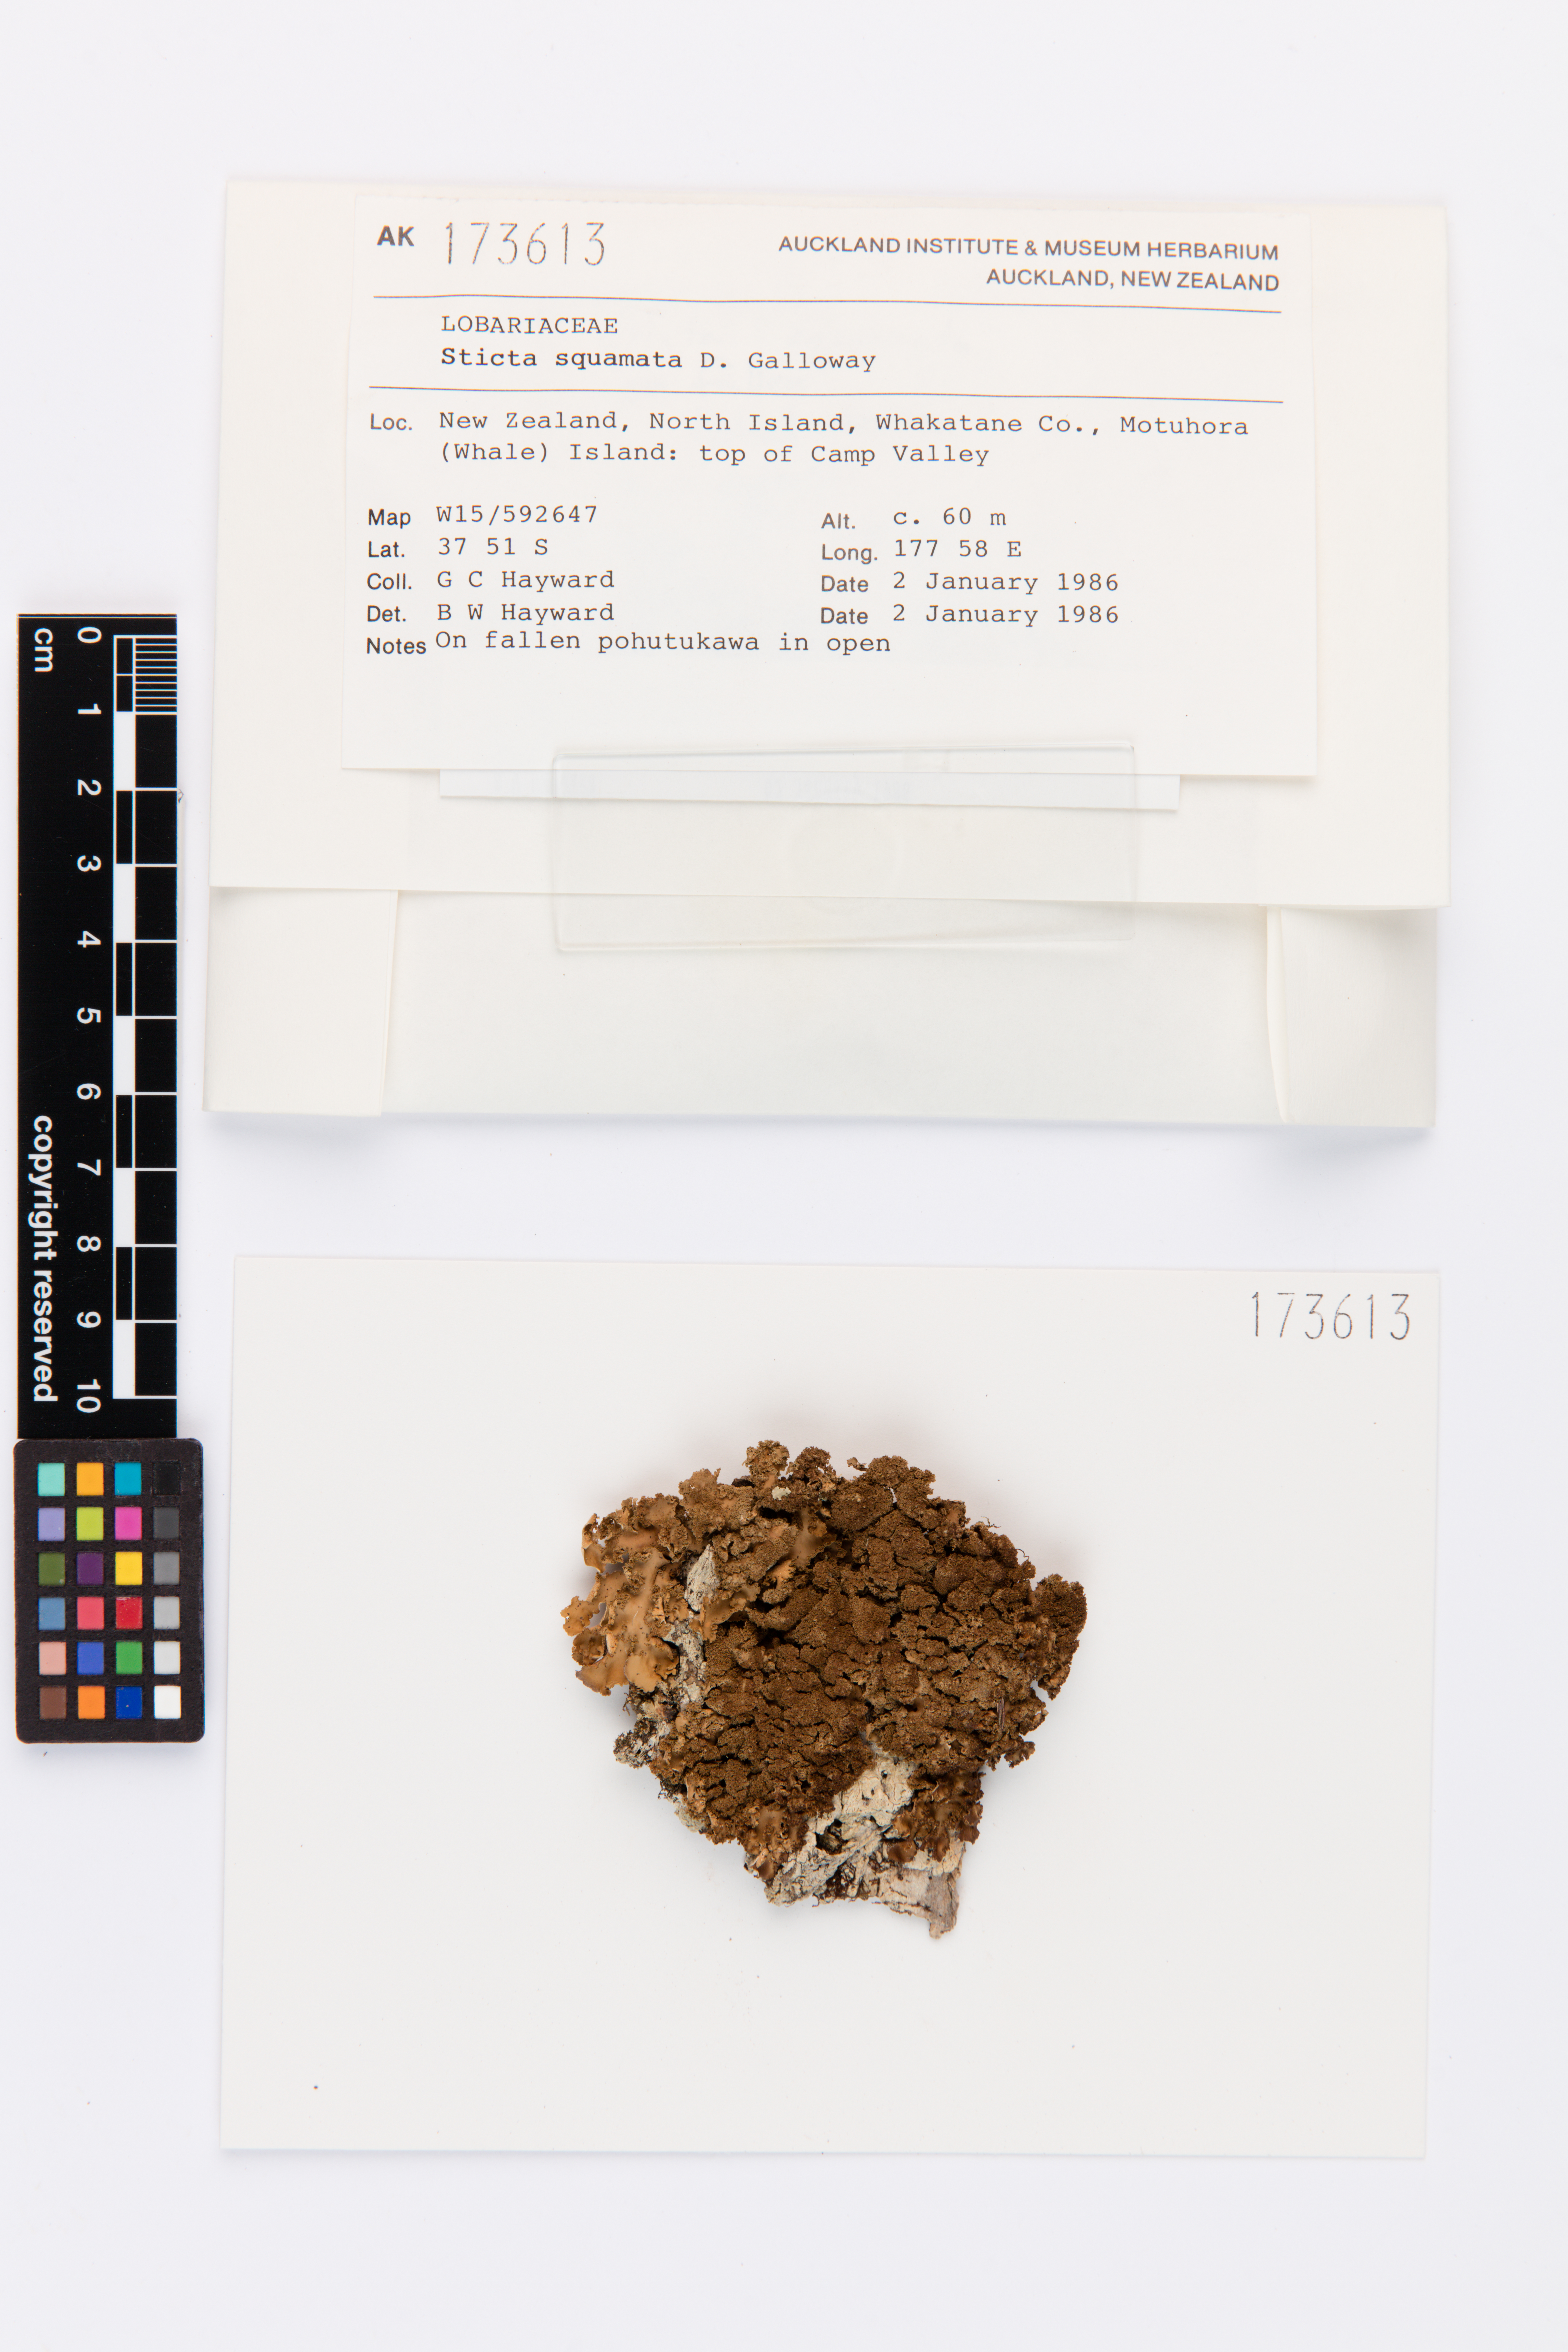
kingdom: Fungi
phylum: Ascomycota
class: Lecanoromycetes
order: Peltigerales
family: Lobariaceae
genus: Sticta
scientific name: Sticta squamata
